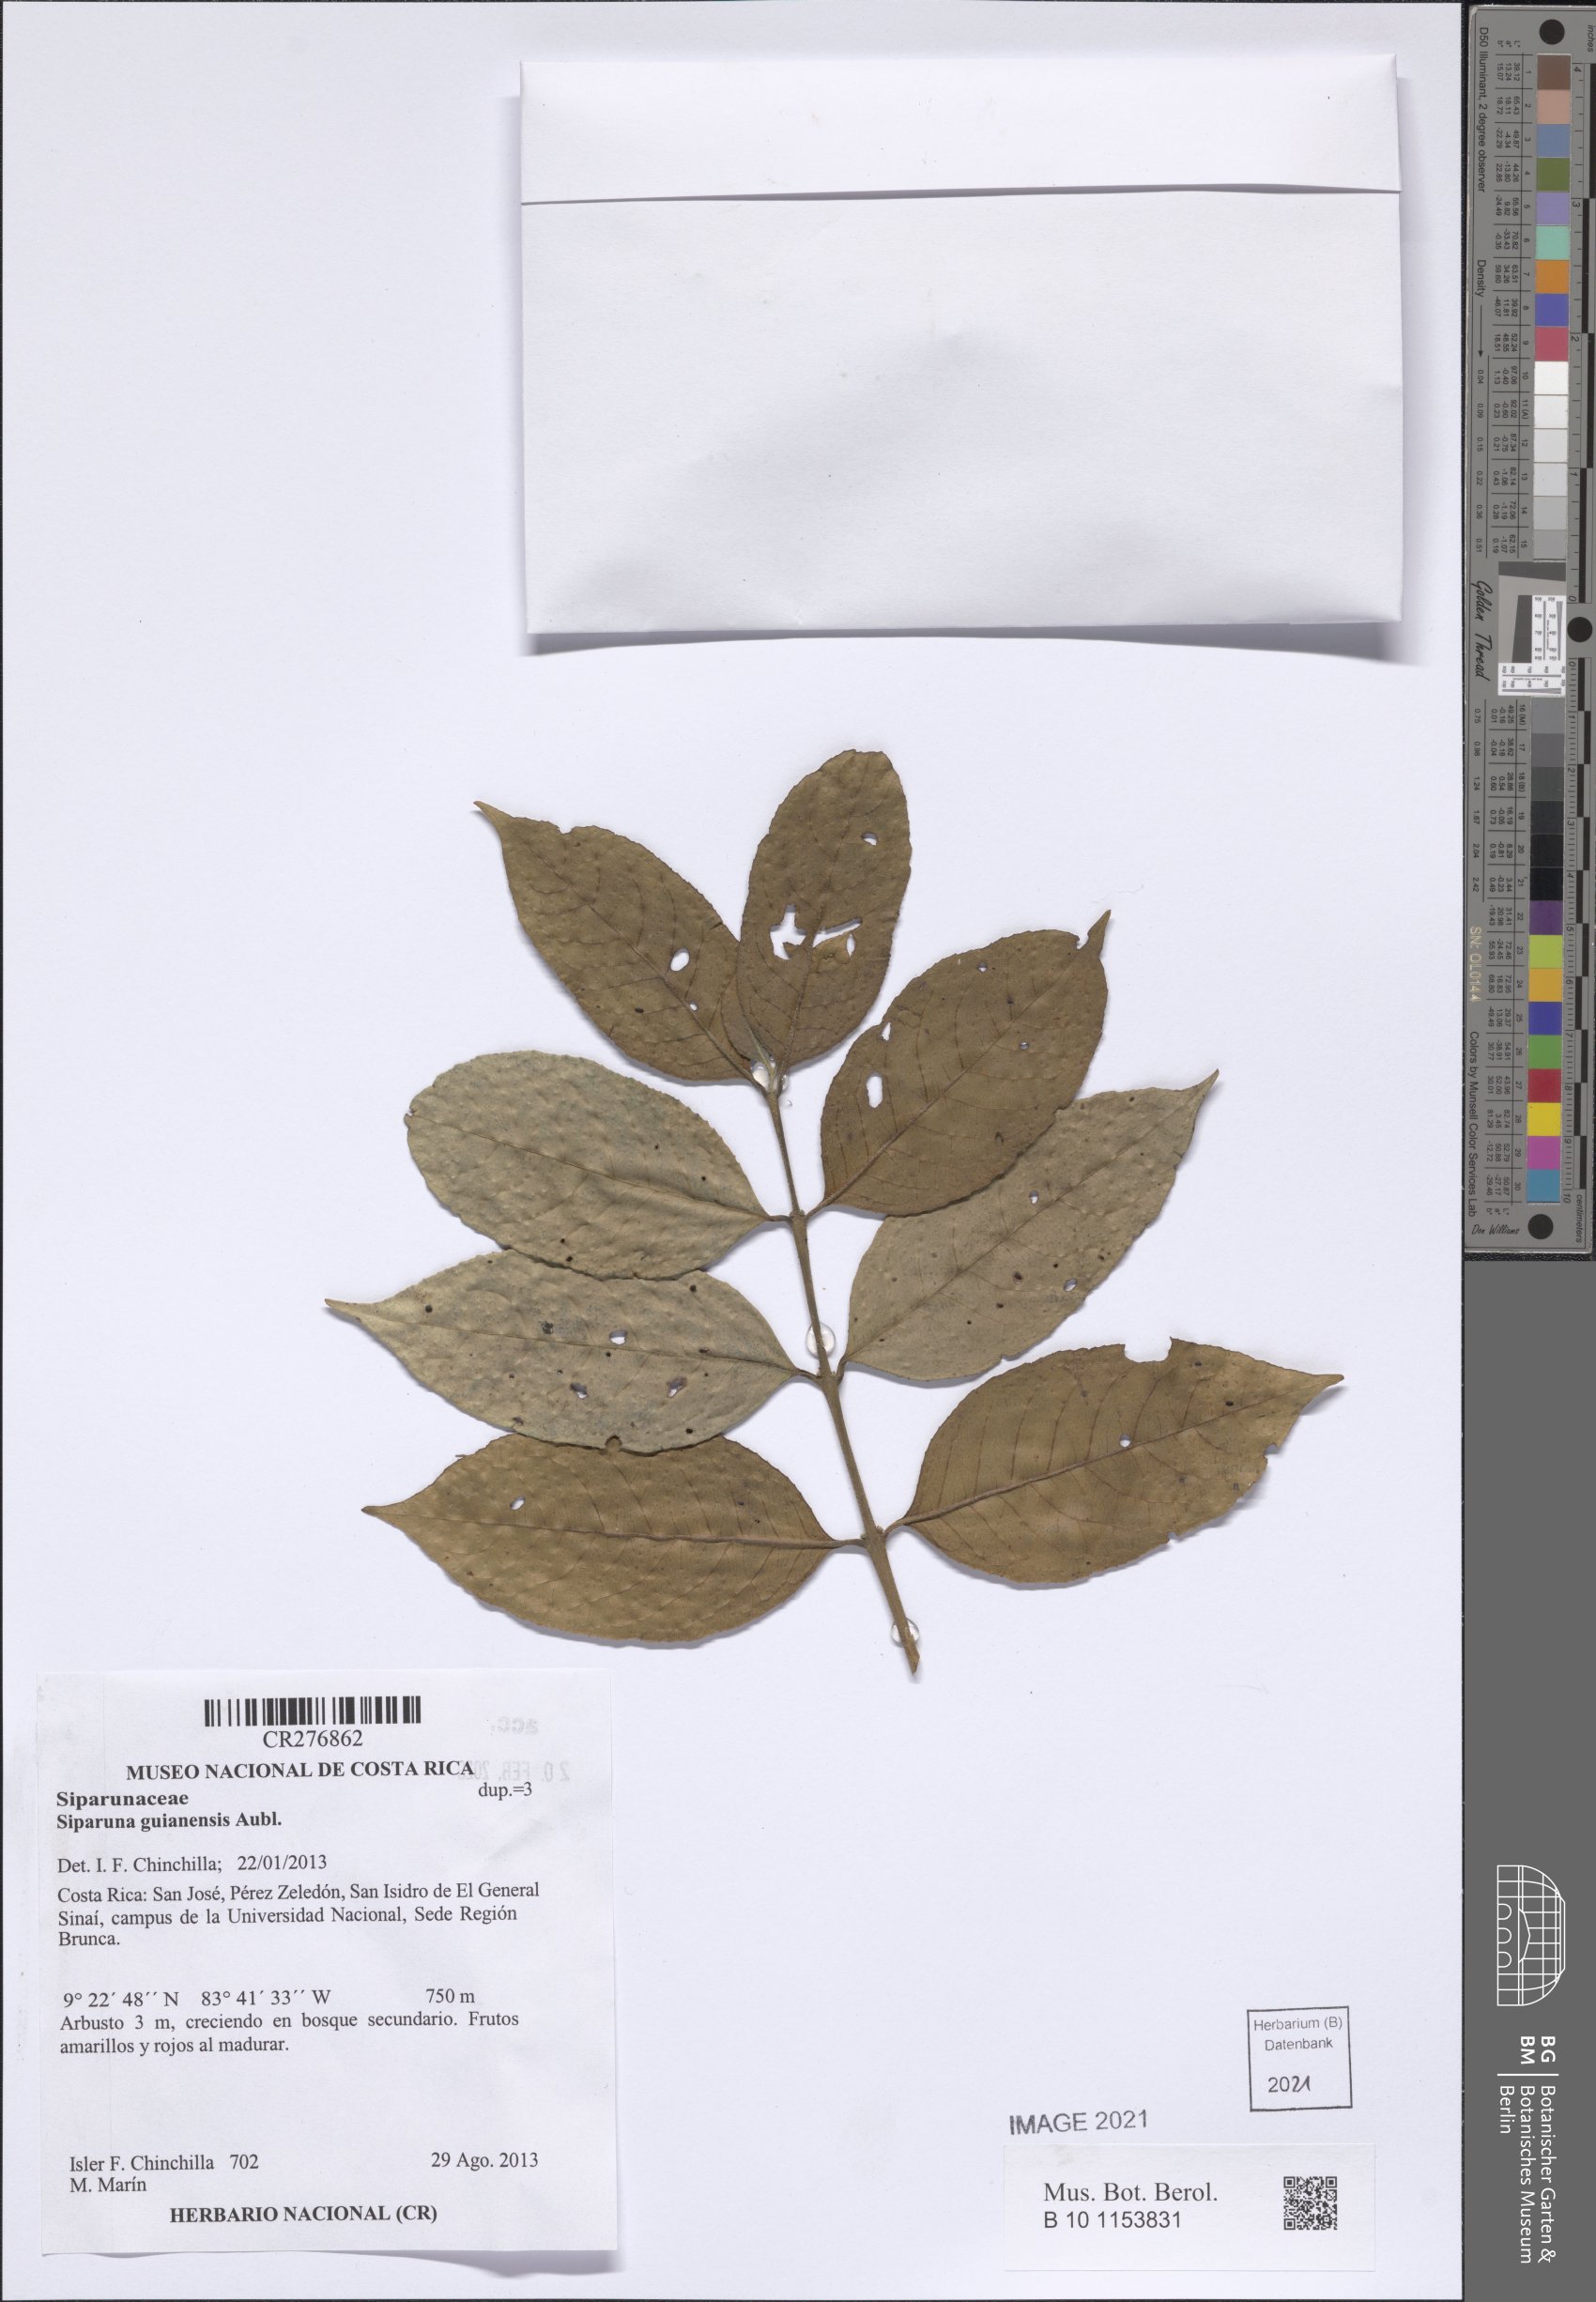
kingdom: Plantae
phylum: Tracheophyta
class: Magnoliopsida
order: Laurales
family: Siparunaceae
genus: Siparuna
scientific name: Siparuna guianensis
